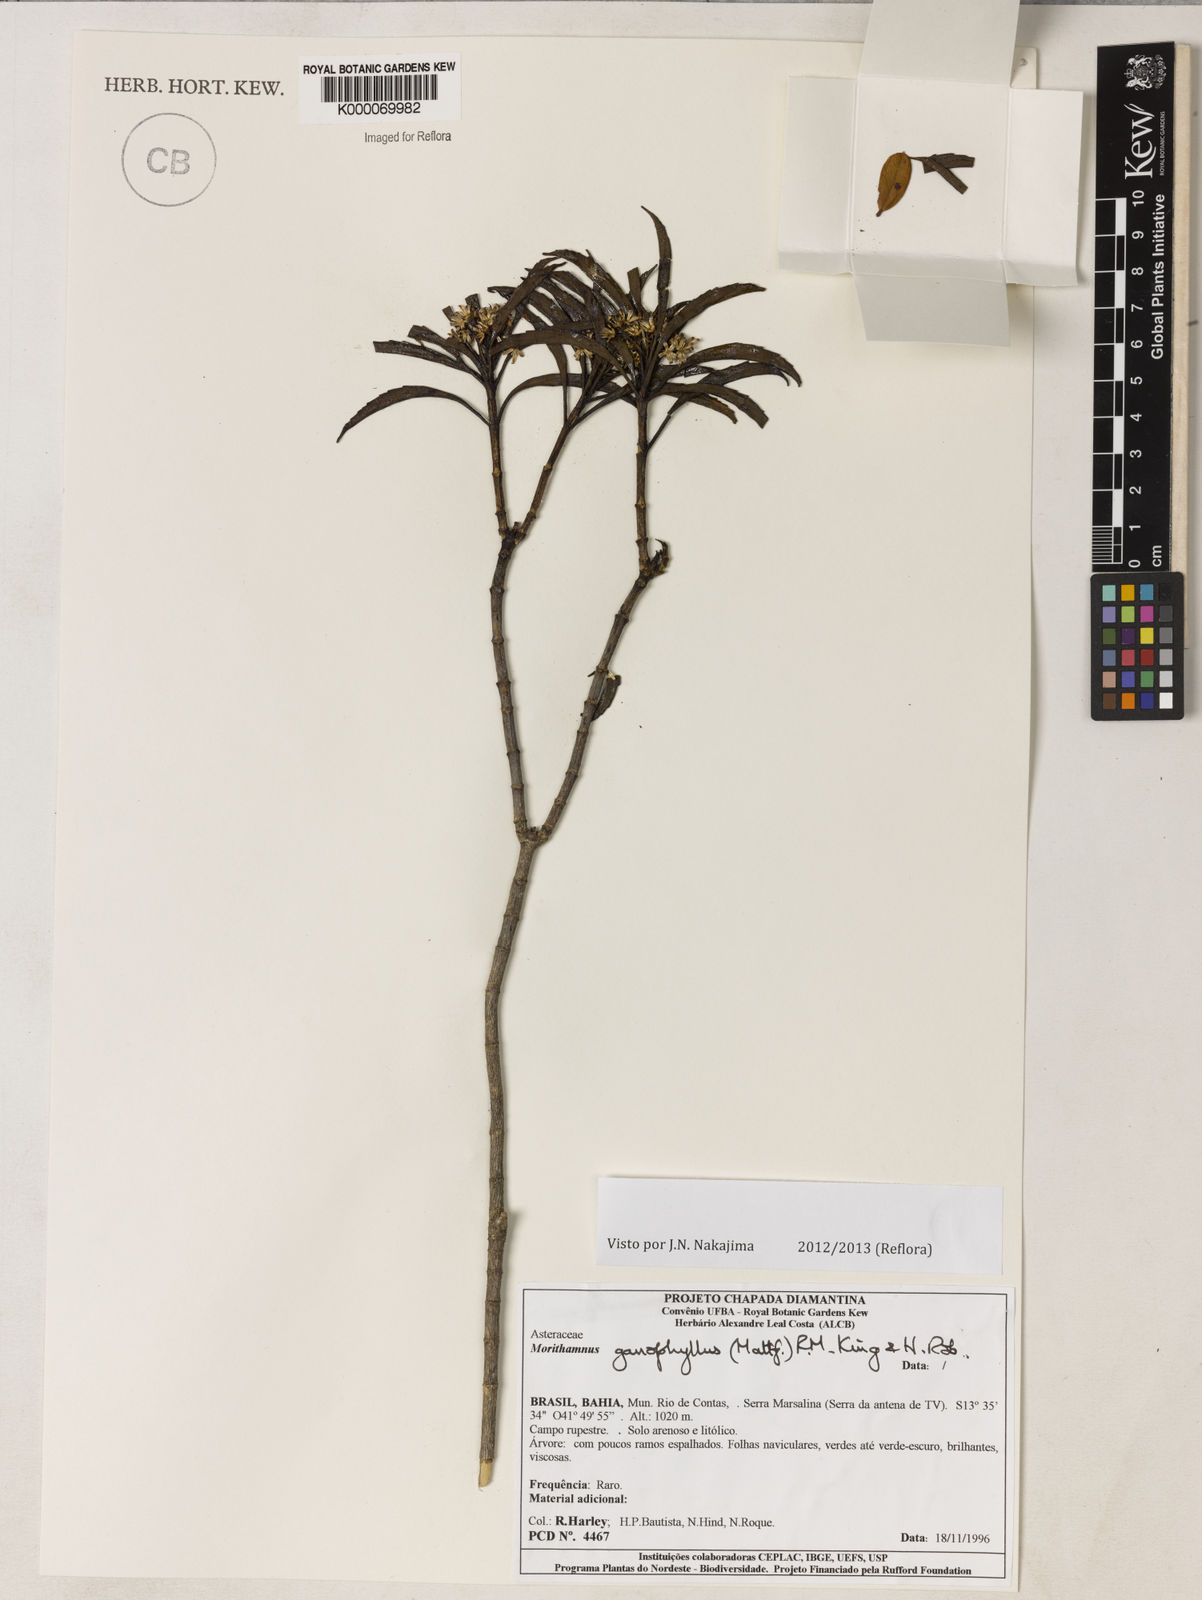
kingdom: Plantae
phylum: Tracheophyta
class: Magnoliopsida
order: Asterales
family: Asteraceae
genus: Morithamnus
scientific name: Morithamnus ganophyllus
